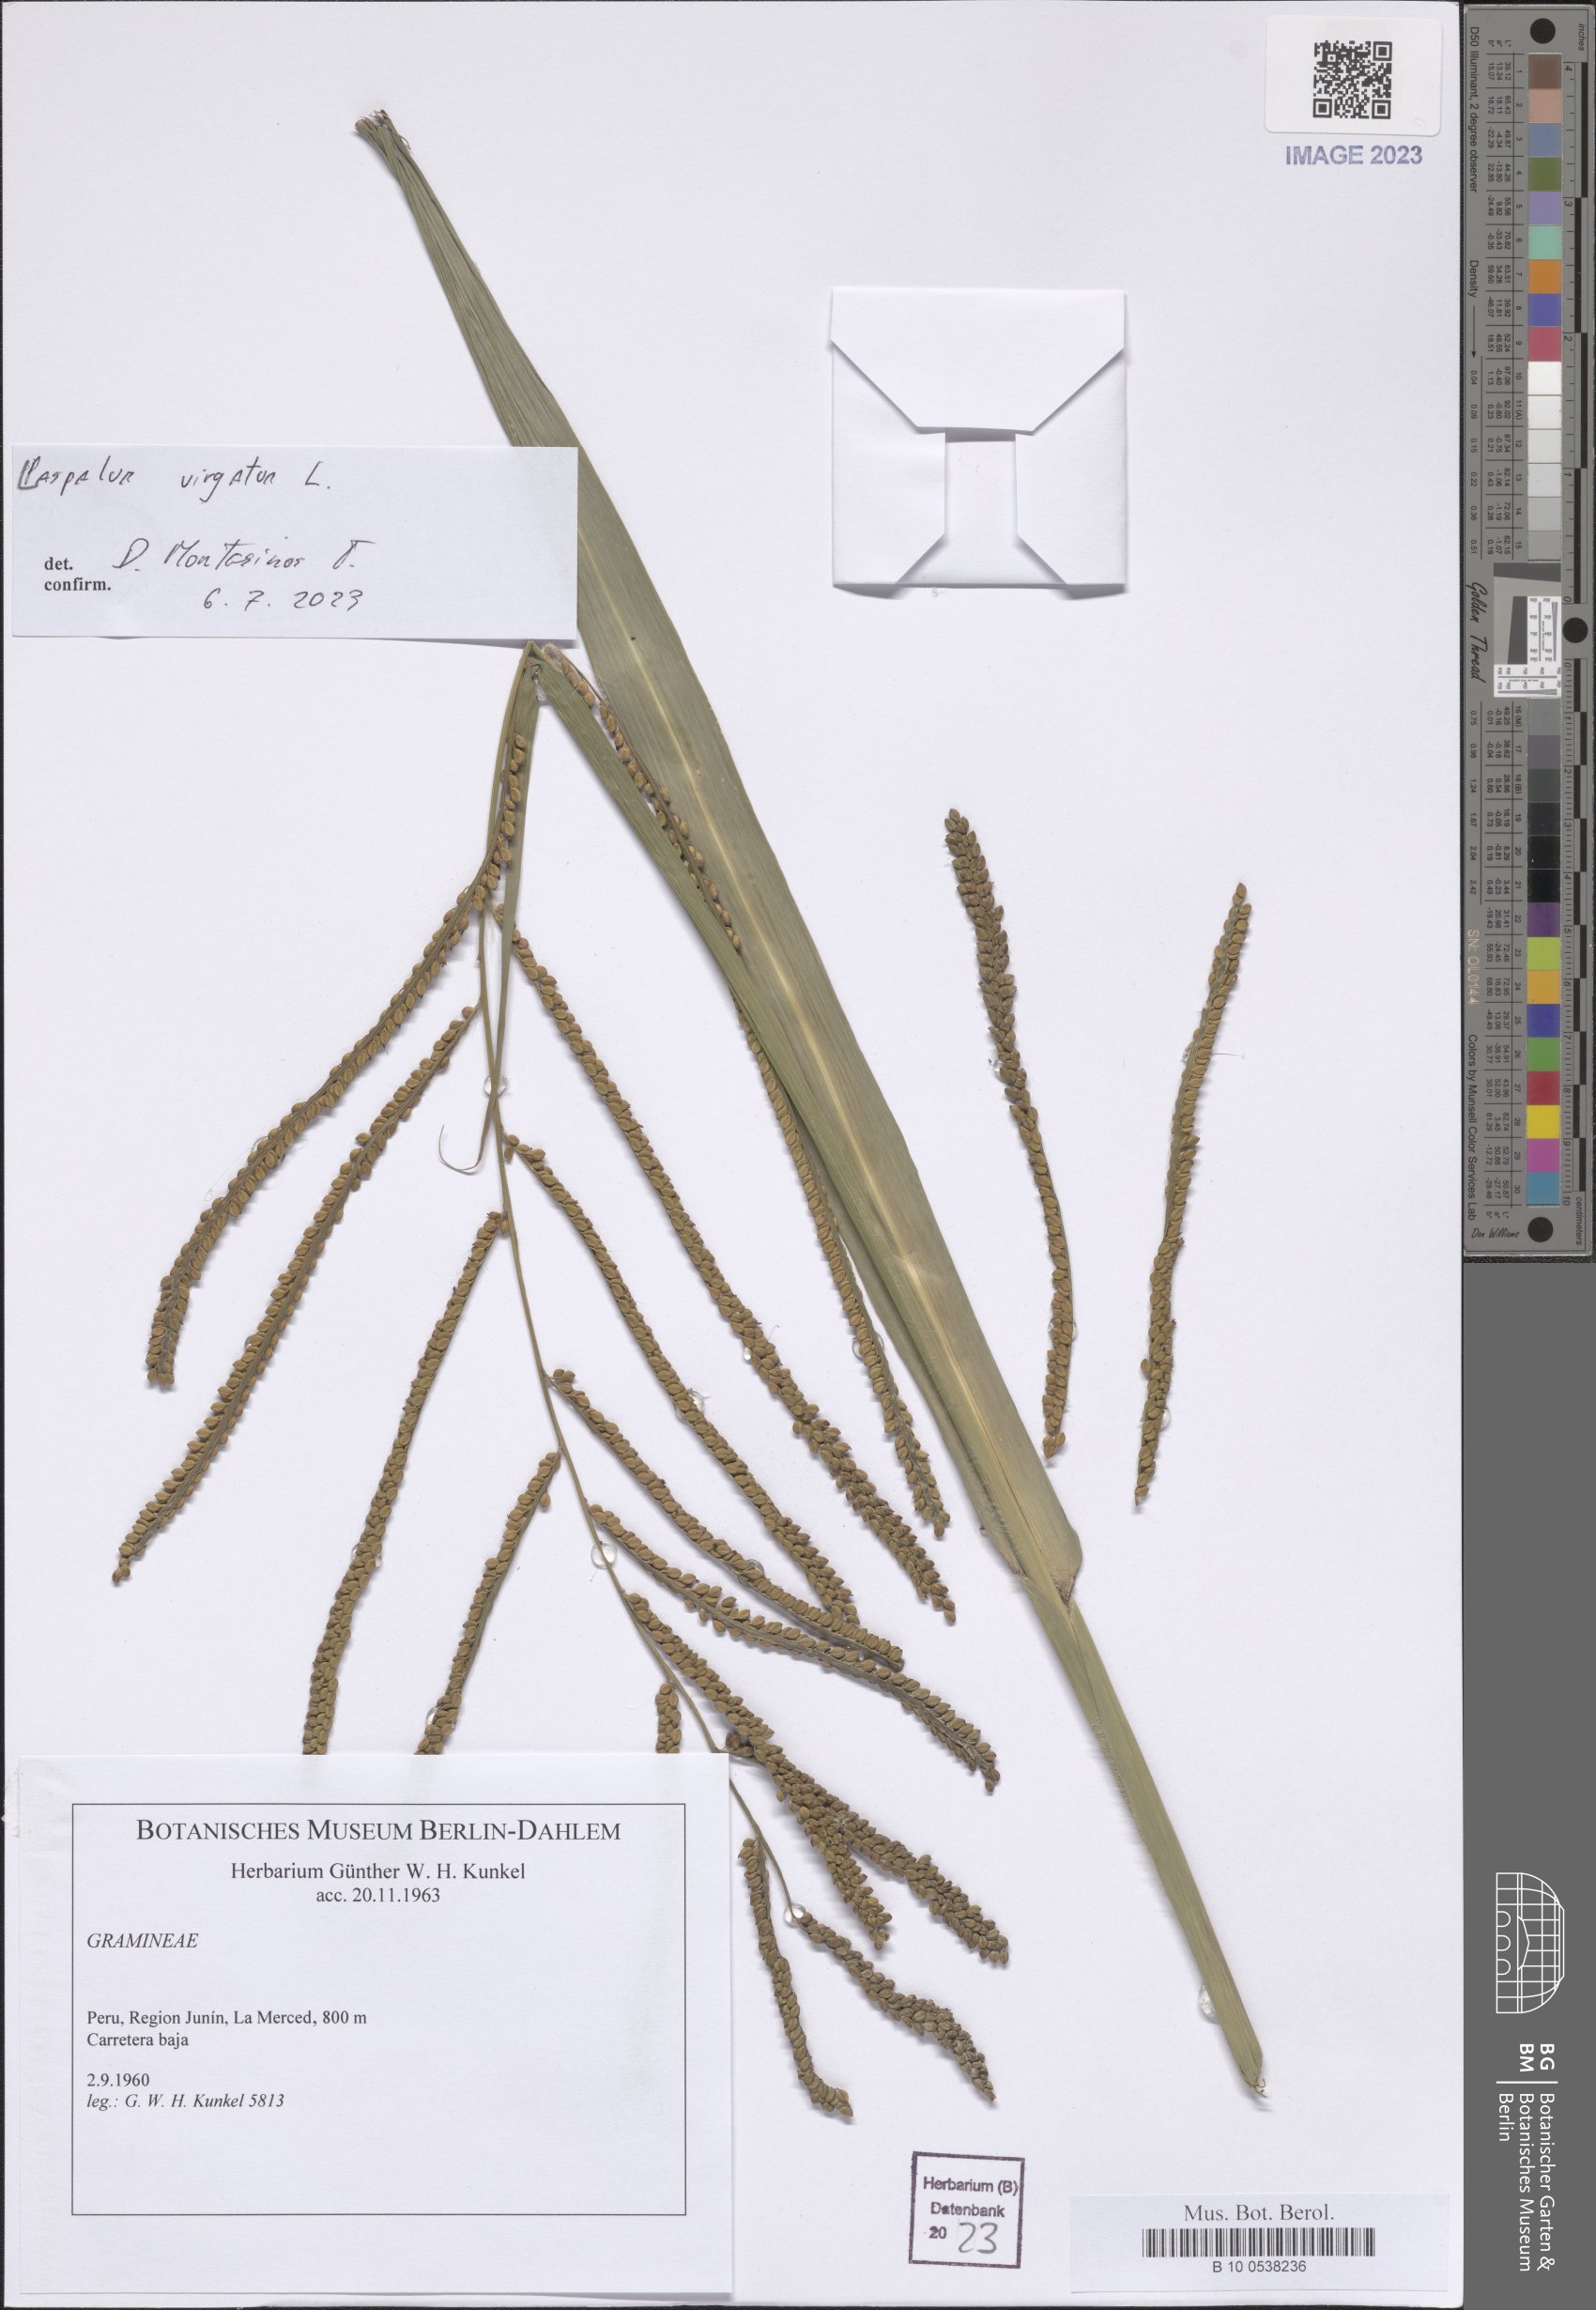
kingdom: Plantae
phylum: Tracheophyta
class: Liliopsida
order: Poales
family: Poaceae
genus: Paspalum
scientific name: Paspalum virgatum
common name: Talquezal
